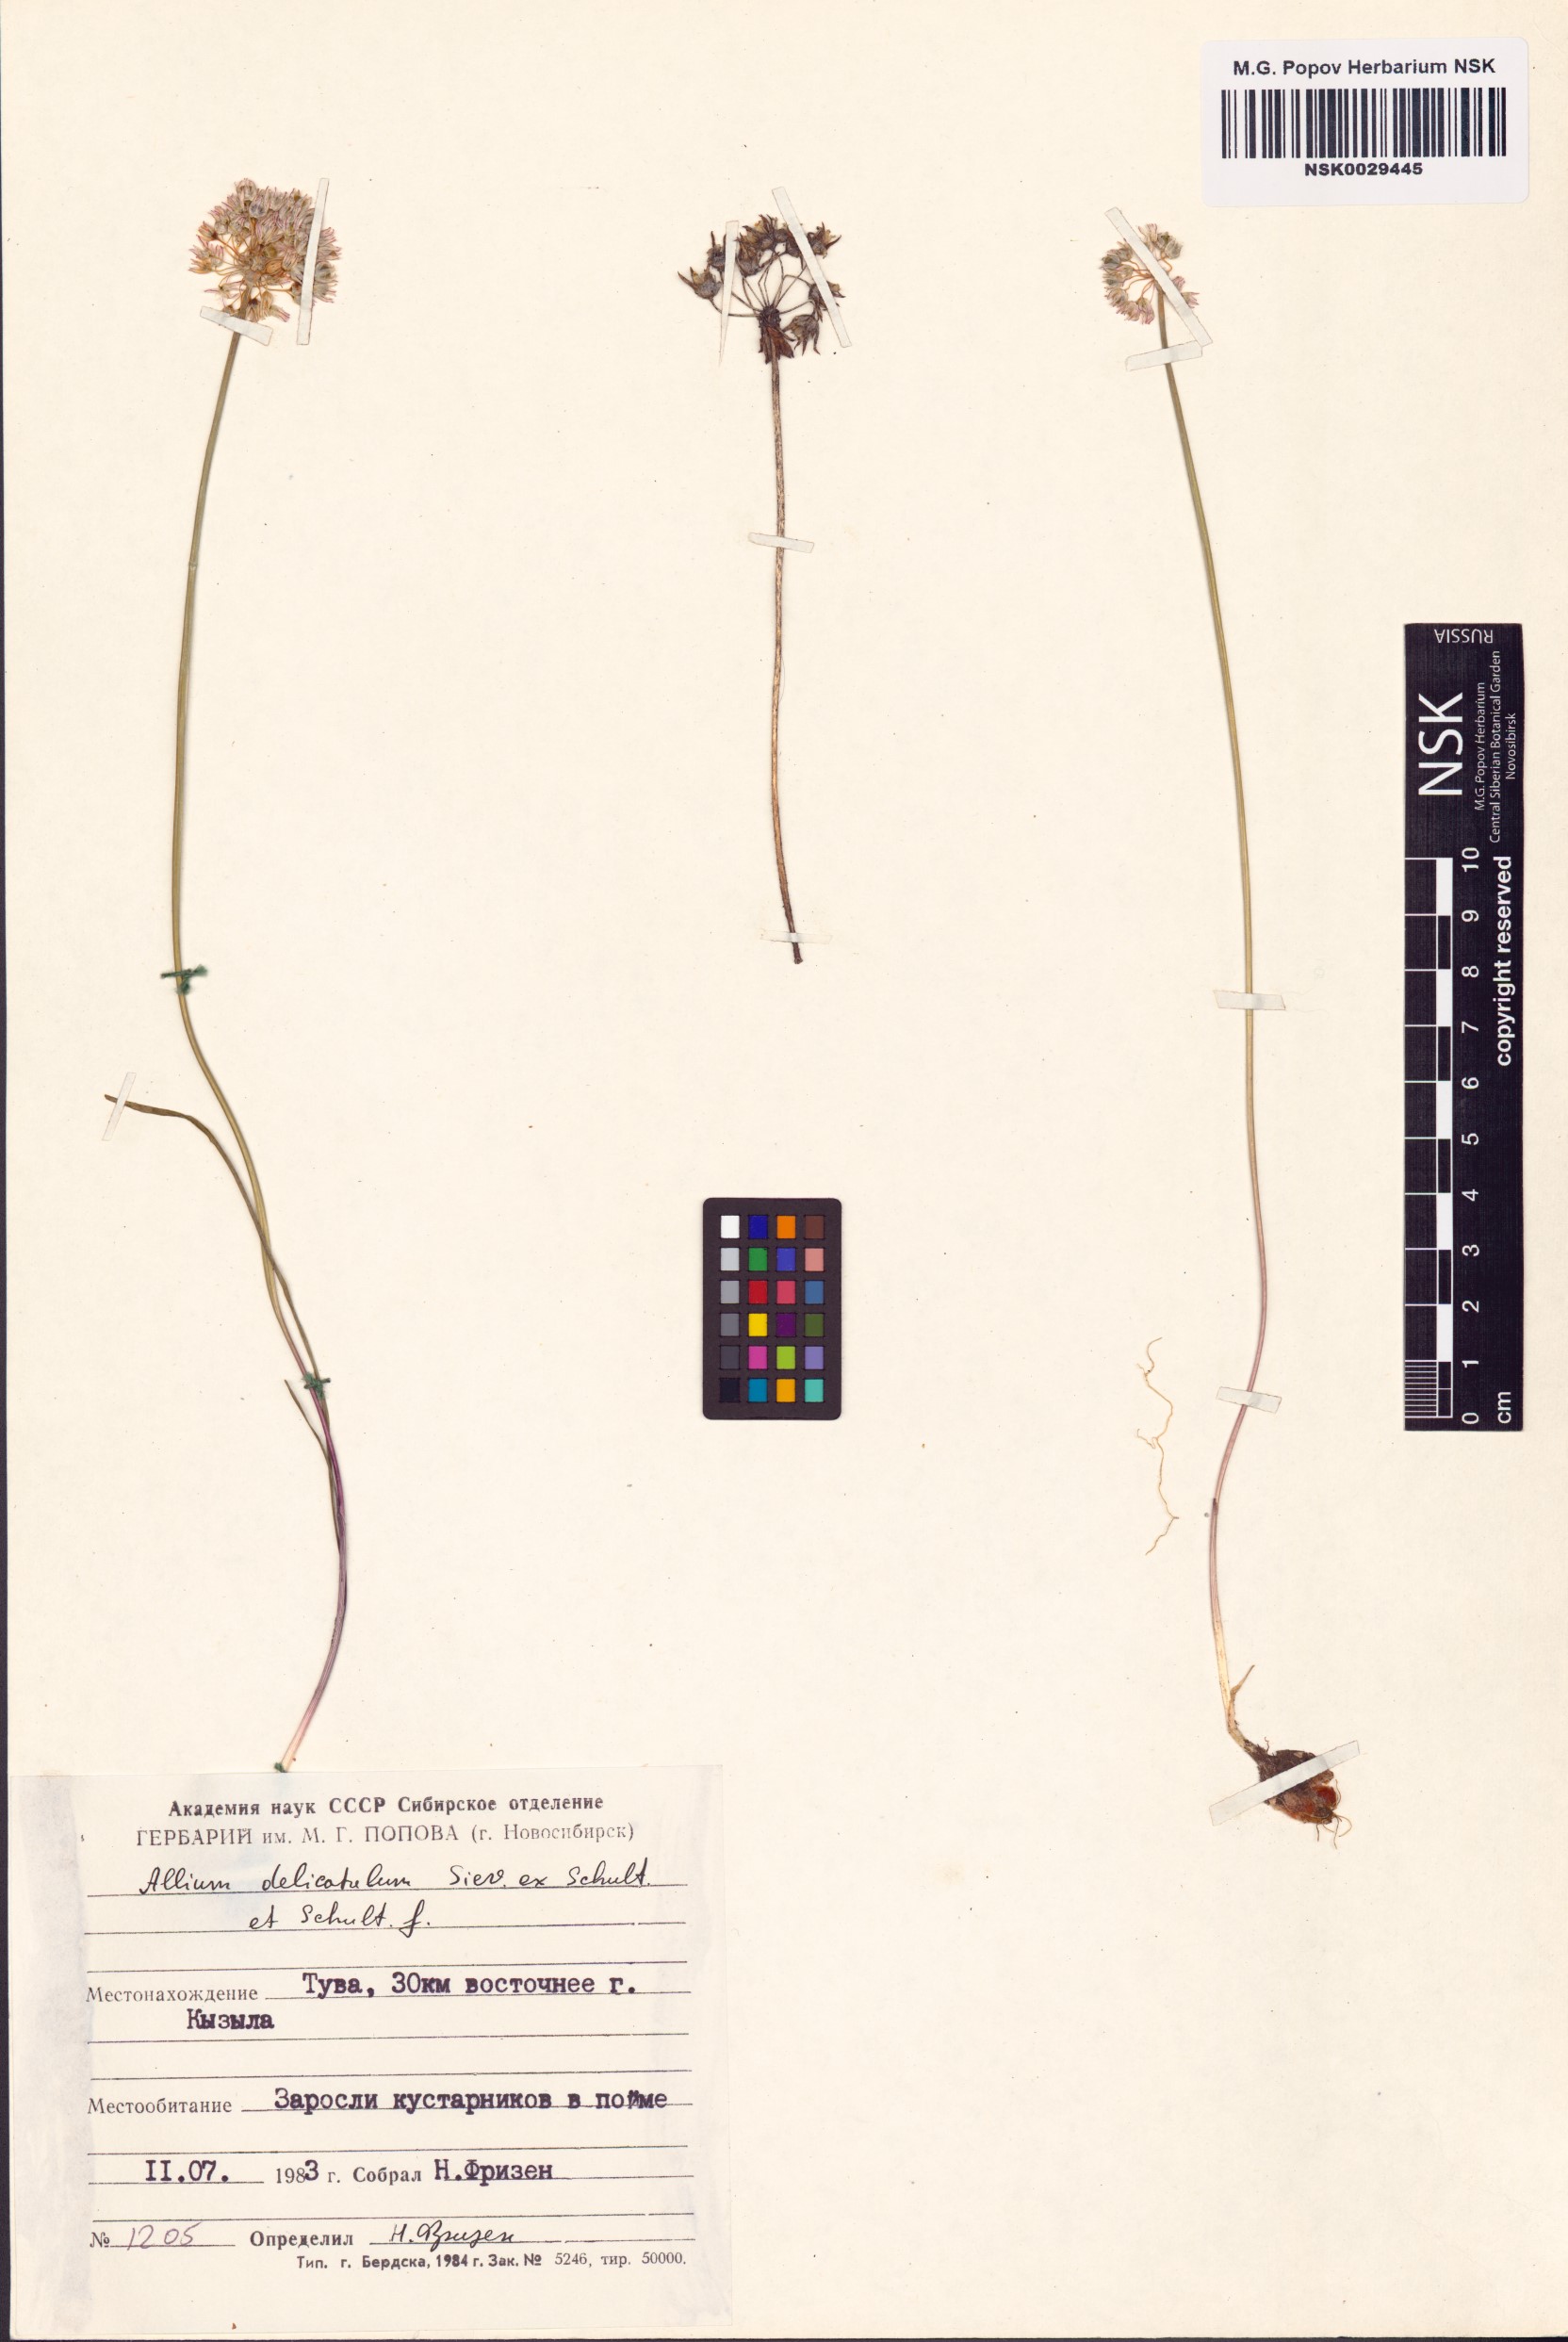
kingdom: Plantae
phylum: Tracheophyta
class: Liliopsida
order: Asparagales
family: Amaryllidaceae
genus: Allium
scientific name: Allium delicatulum
